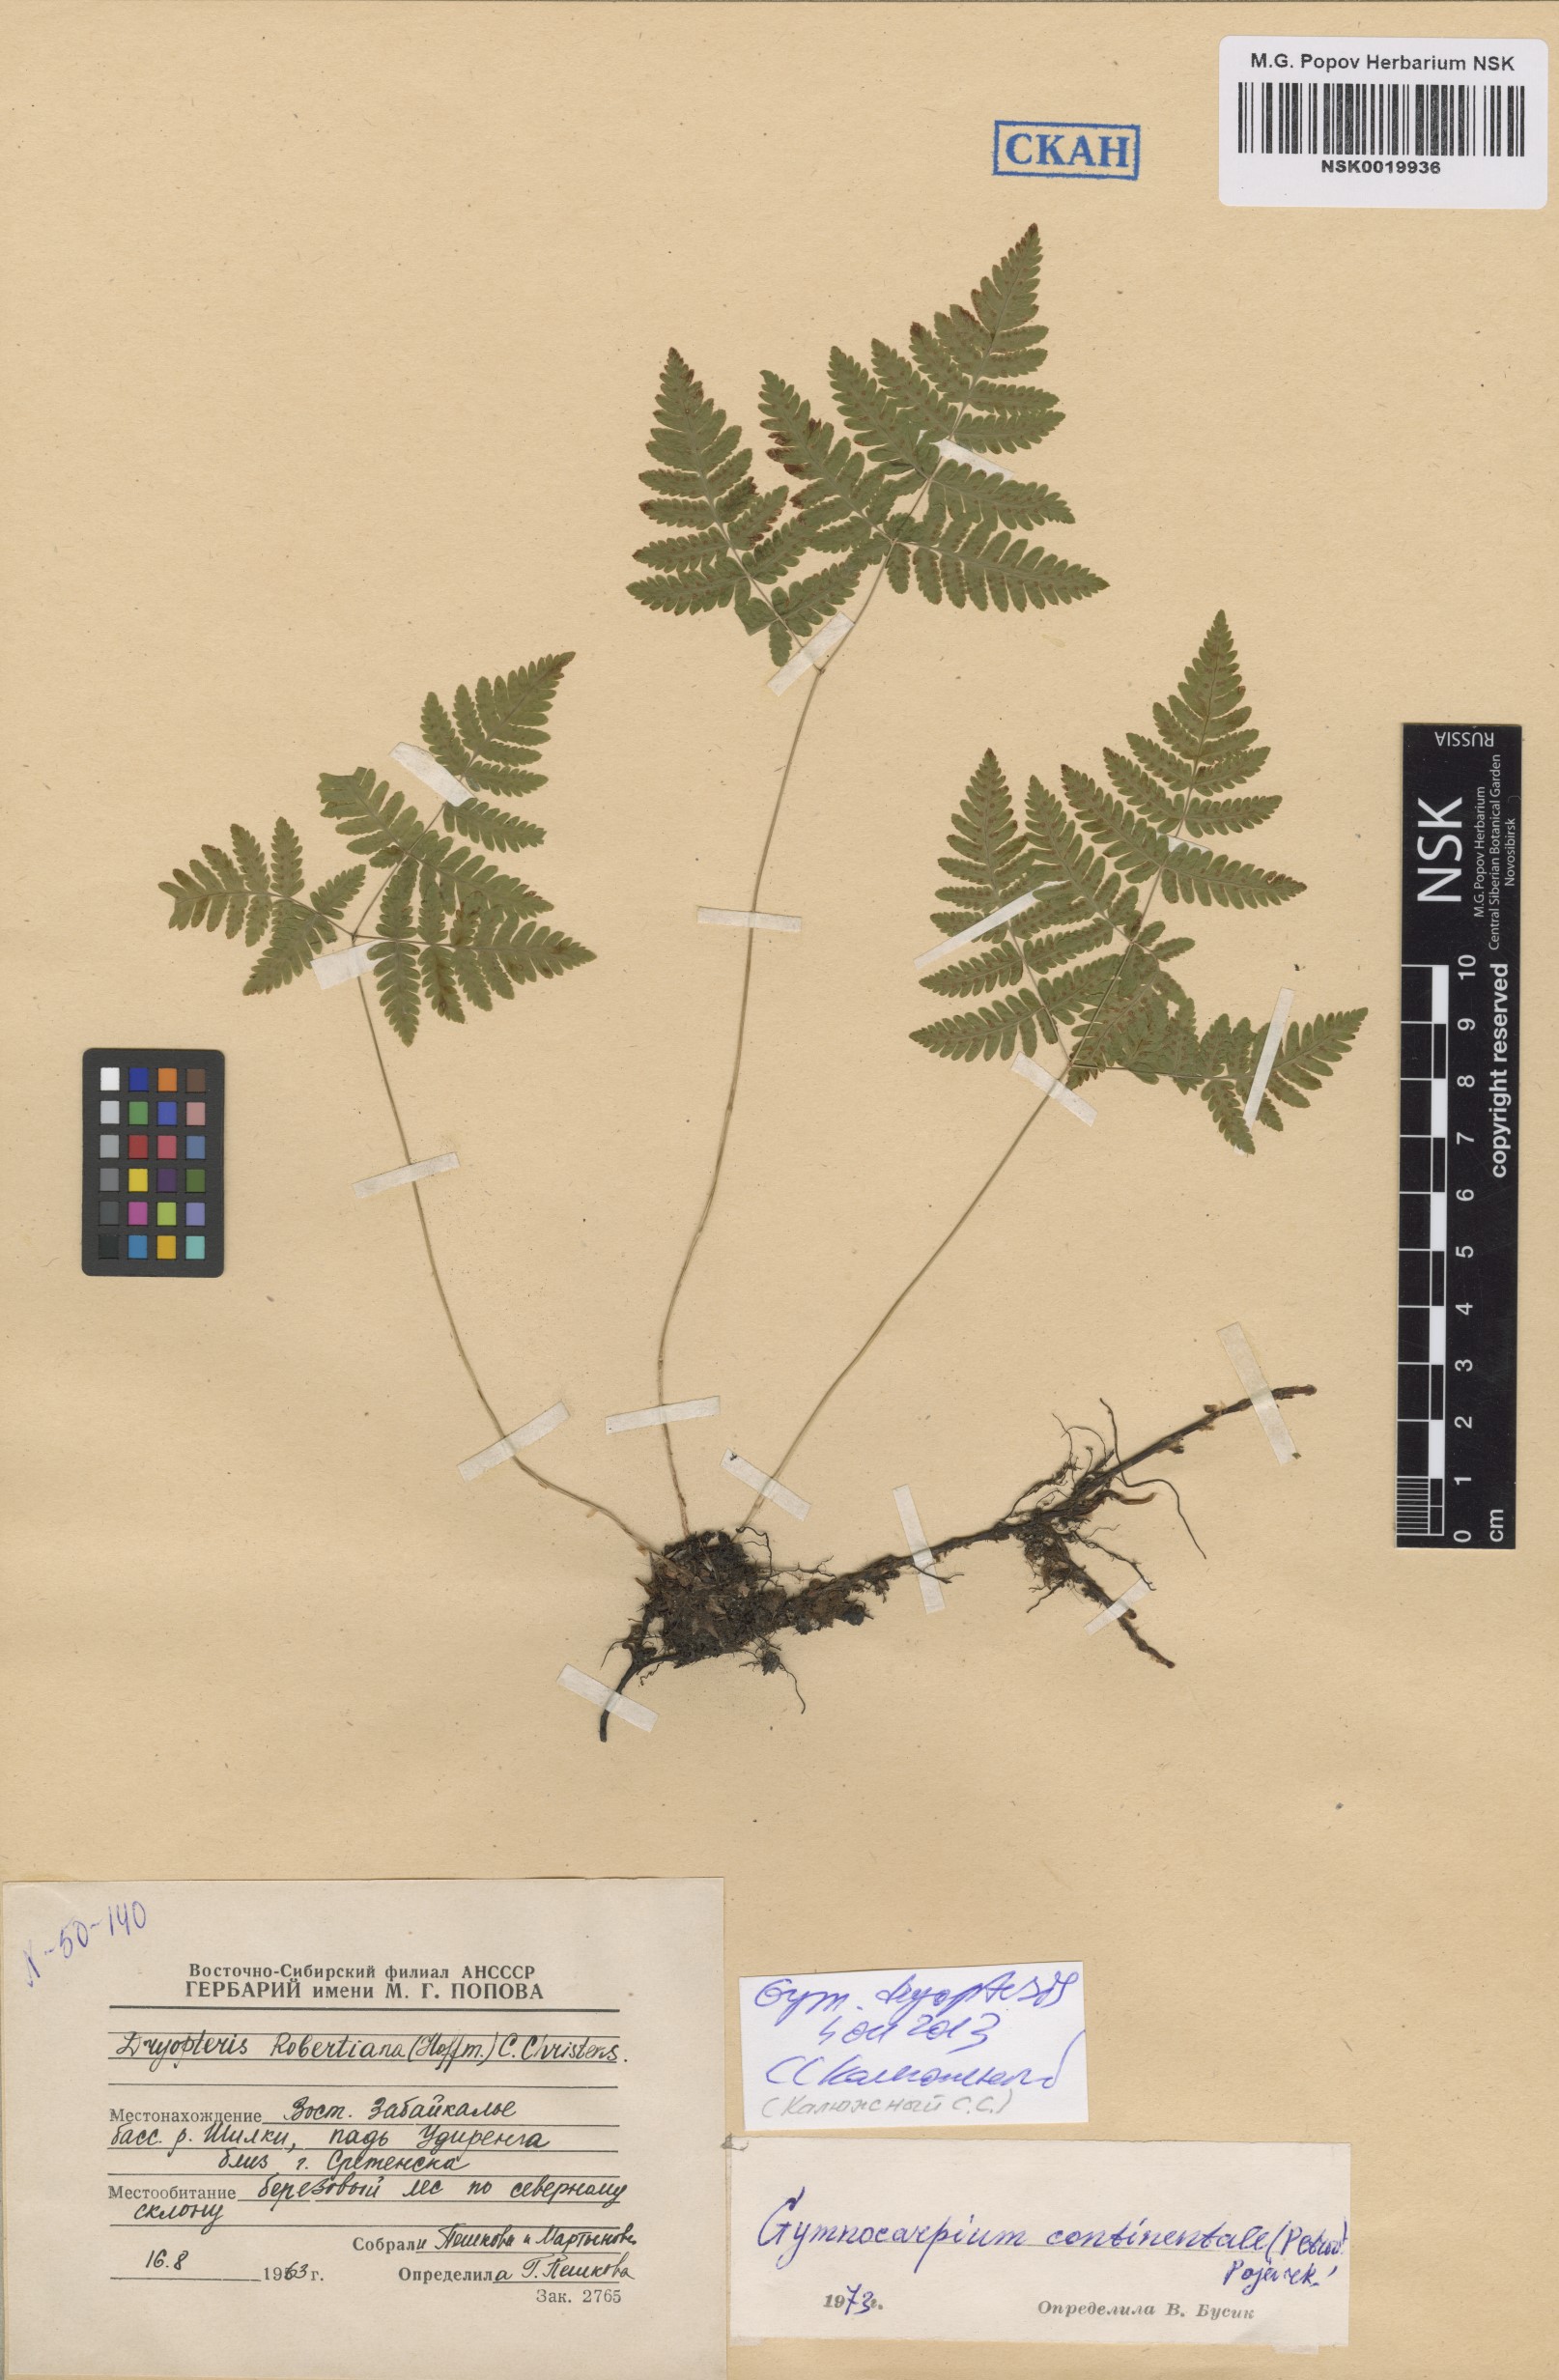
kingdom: Plantae
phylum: Tracheophyta
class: Polypodiopsida
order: Polypodiales
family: Cystopteridaceae
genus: Gymnocarpium
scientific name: Gymnocarpium dryopteris
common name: Oak fern
